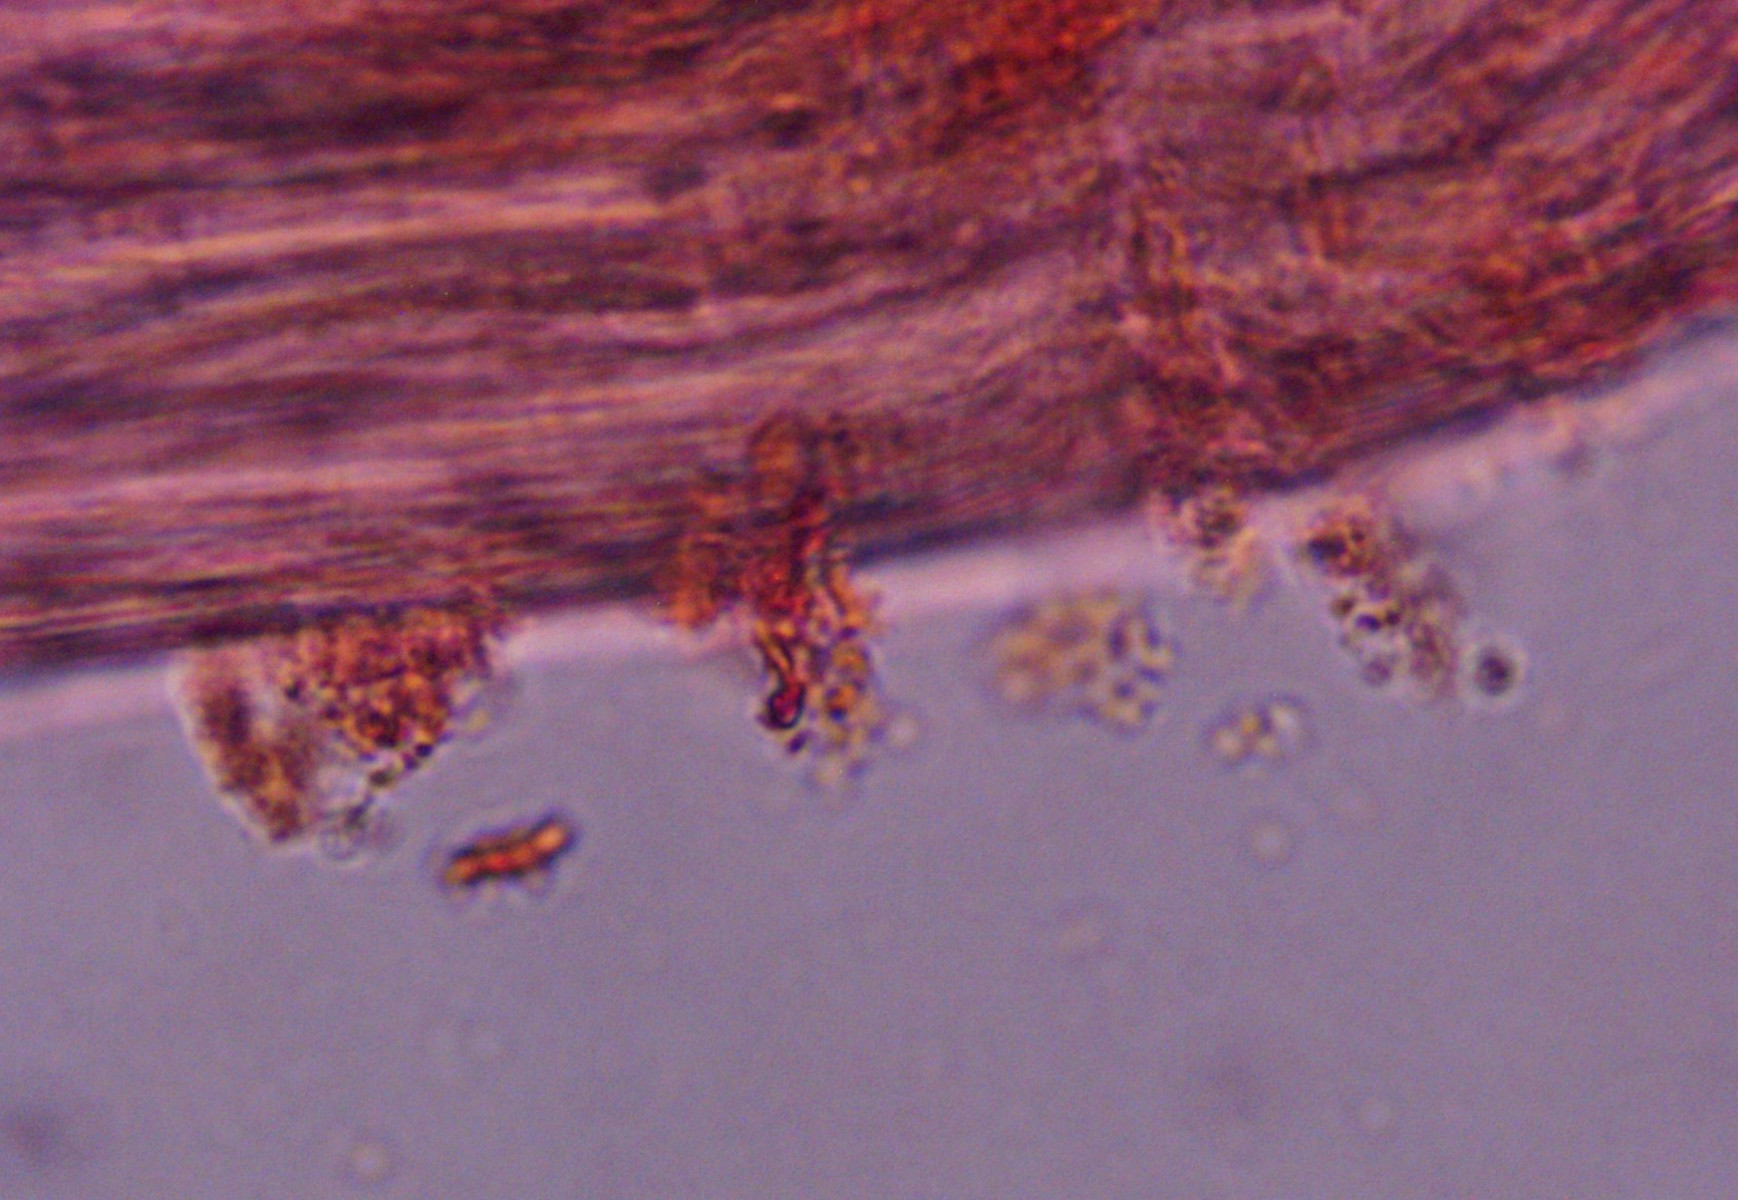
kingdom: Fungi
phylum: Basidiomycota
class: Agaricomycetes
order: Agaricales
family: Mycenaceae
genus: Mycena
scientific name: Mycena haematopus
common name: blødende huesvamp
